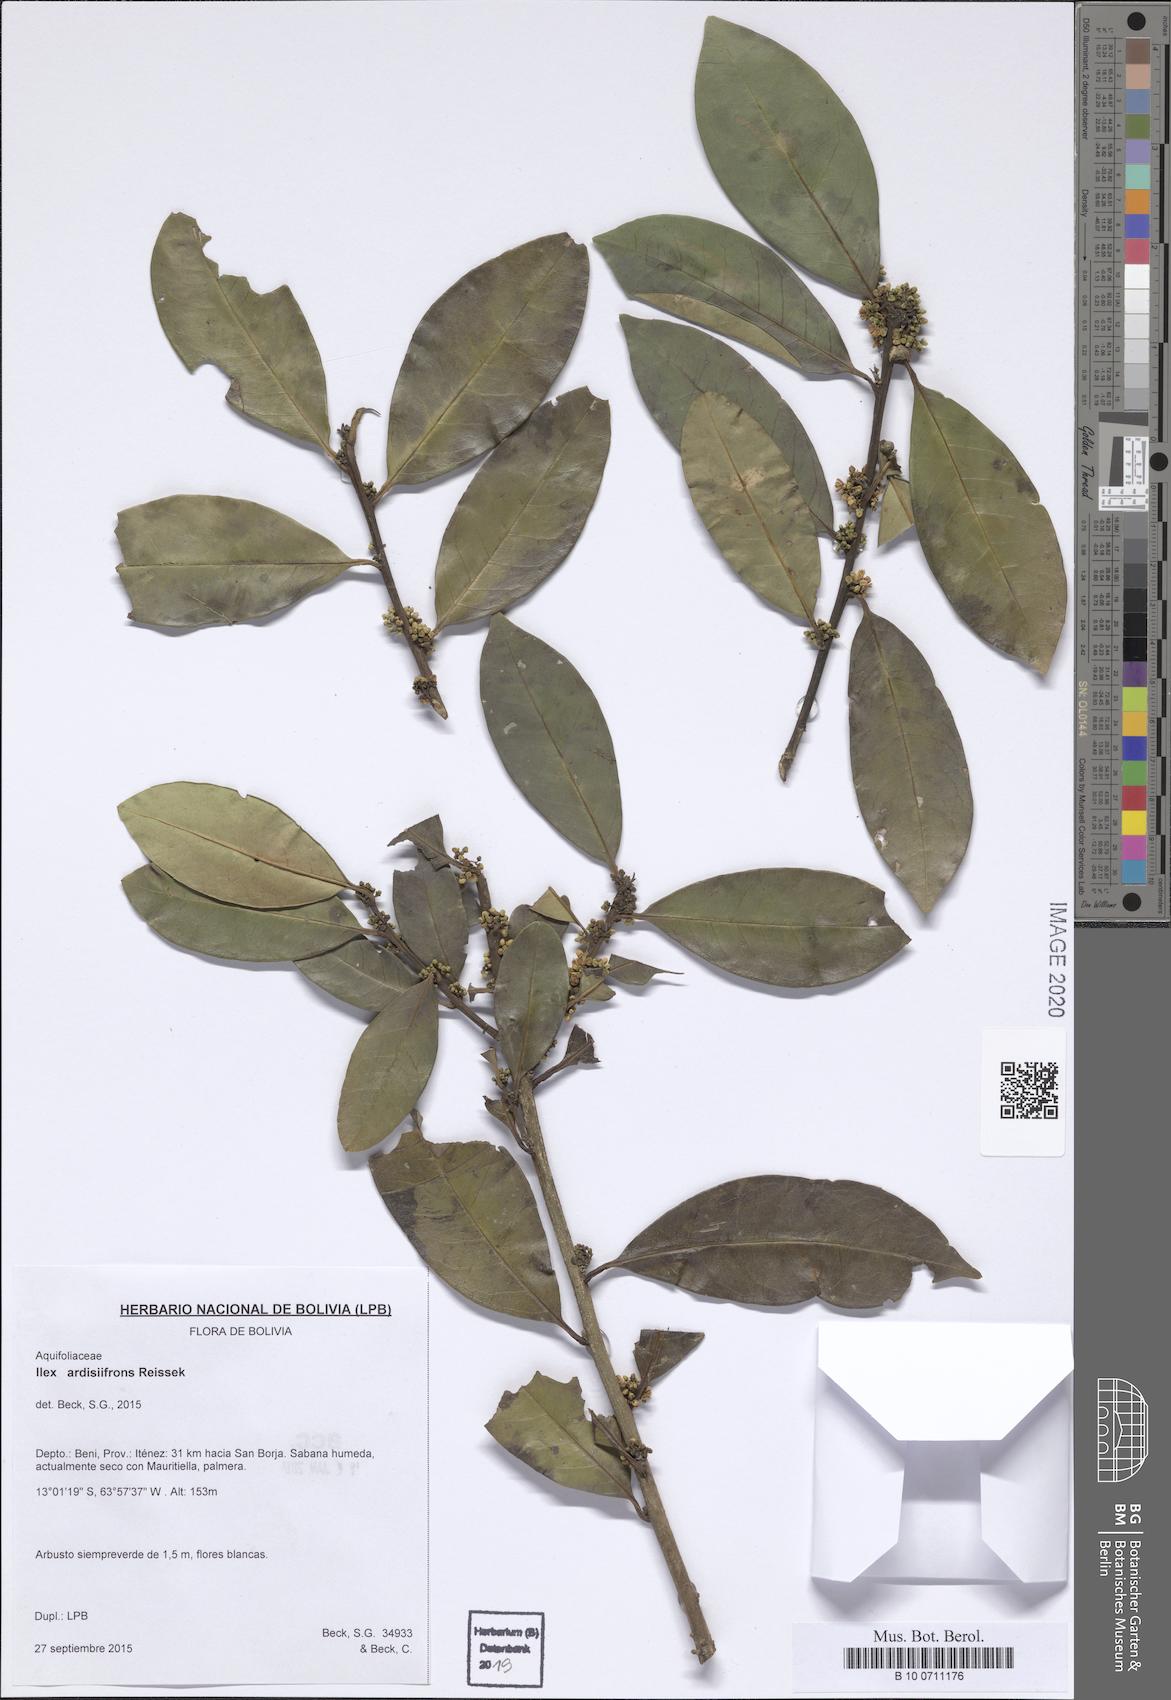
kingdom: Plantae
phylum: Tracheophyta
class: Magnoliopsida
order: Aquifoliales
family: Aquifoliaceae
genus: Ilex
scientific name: Ilex ardisiifrons
